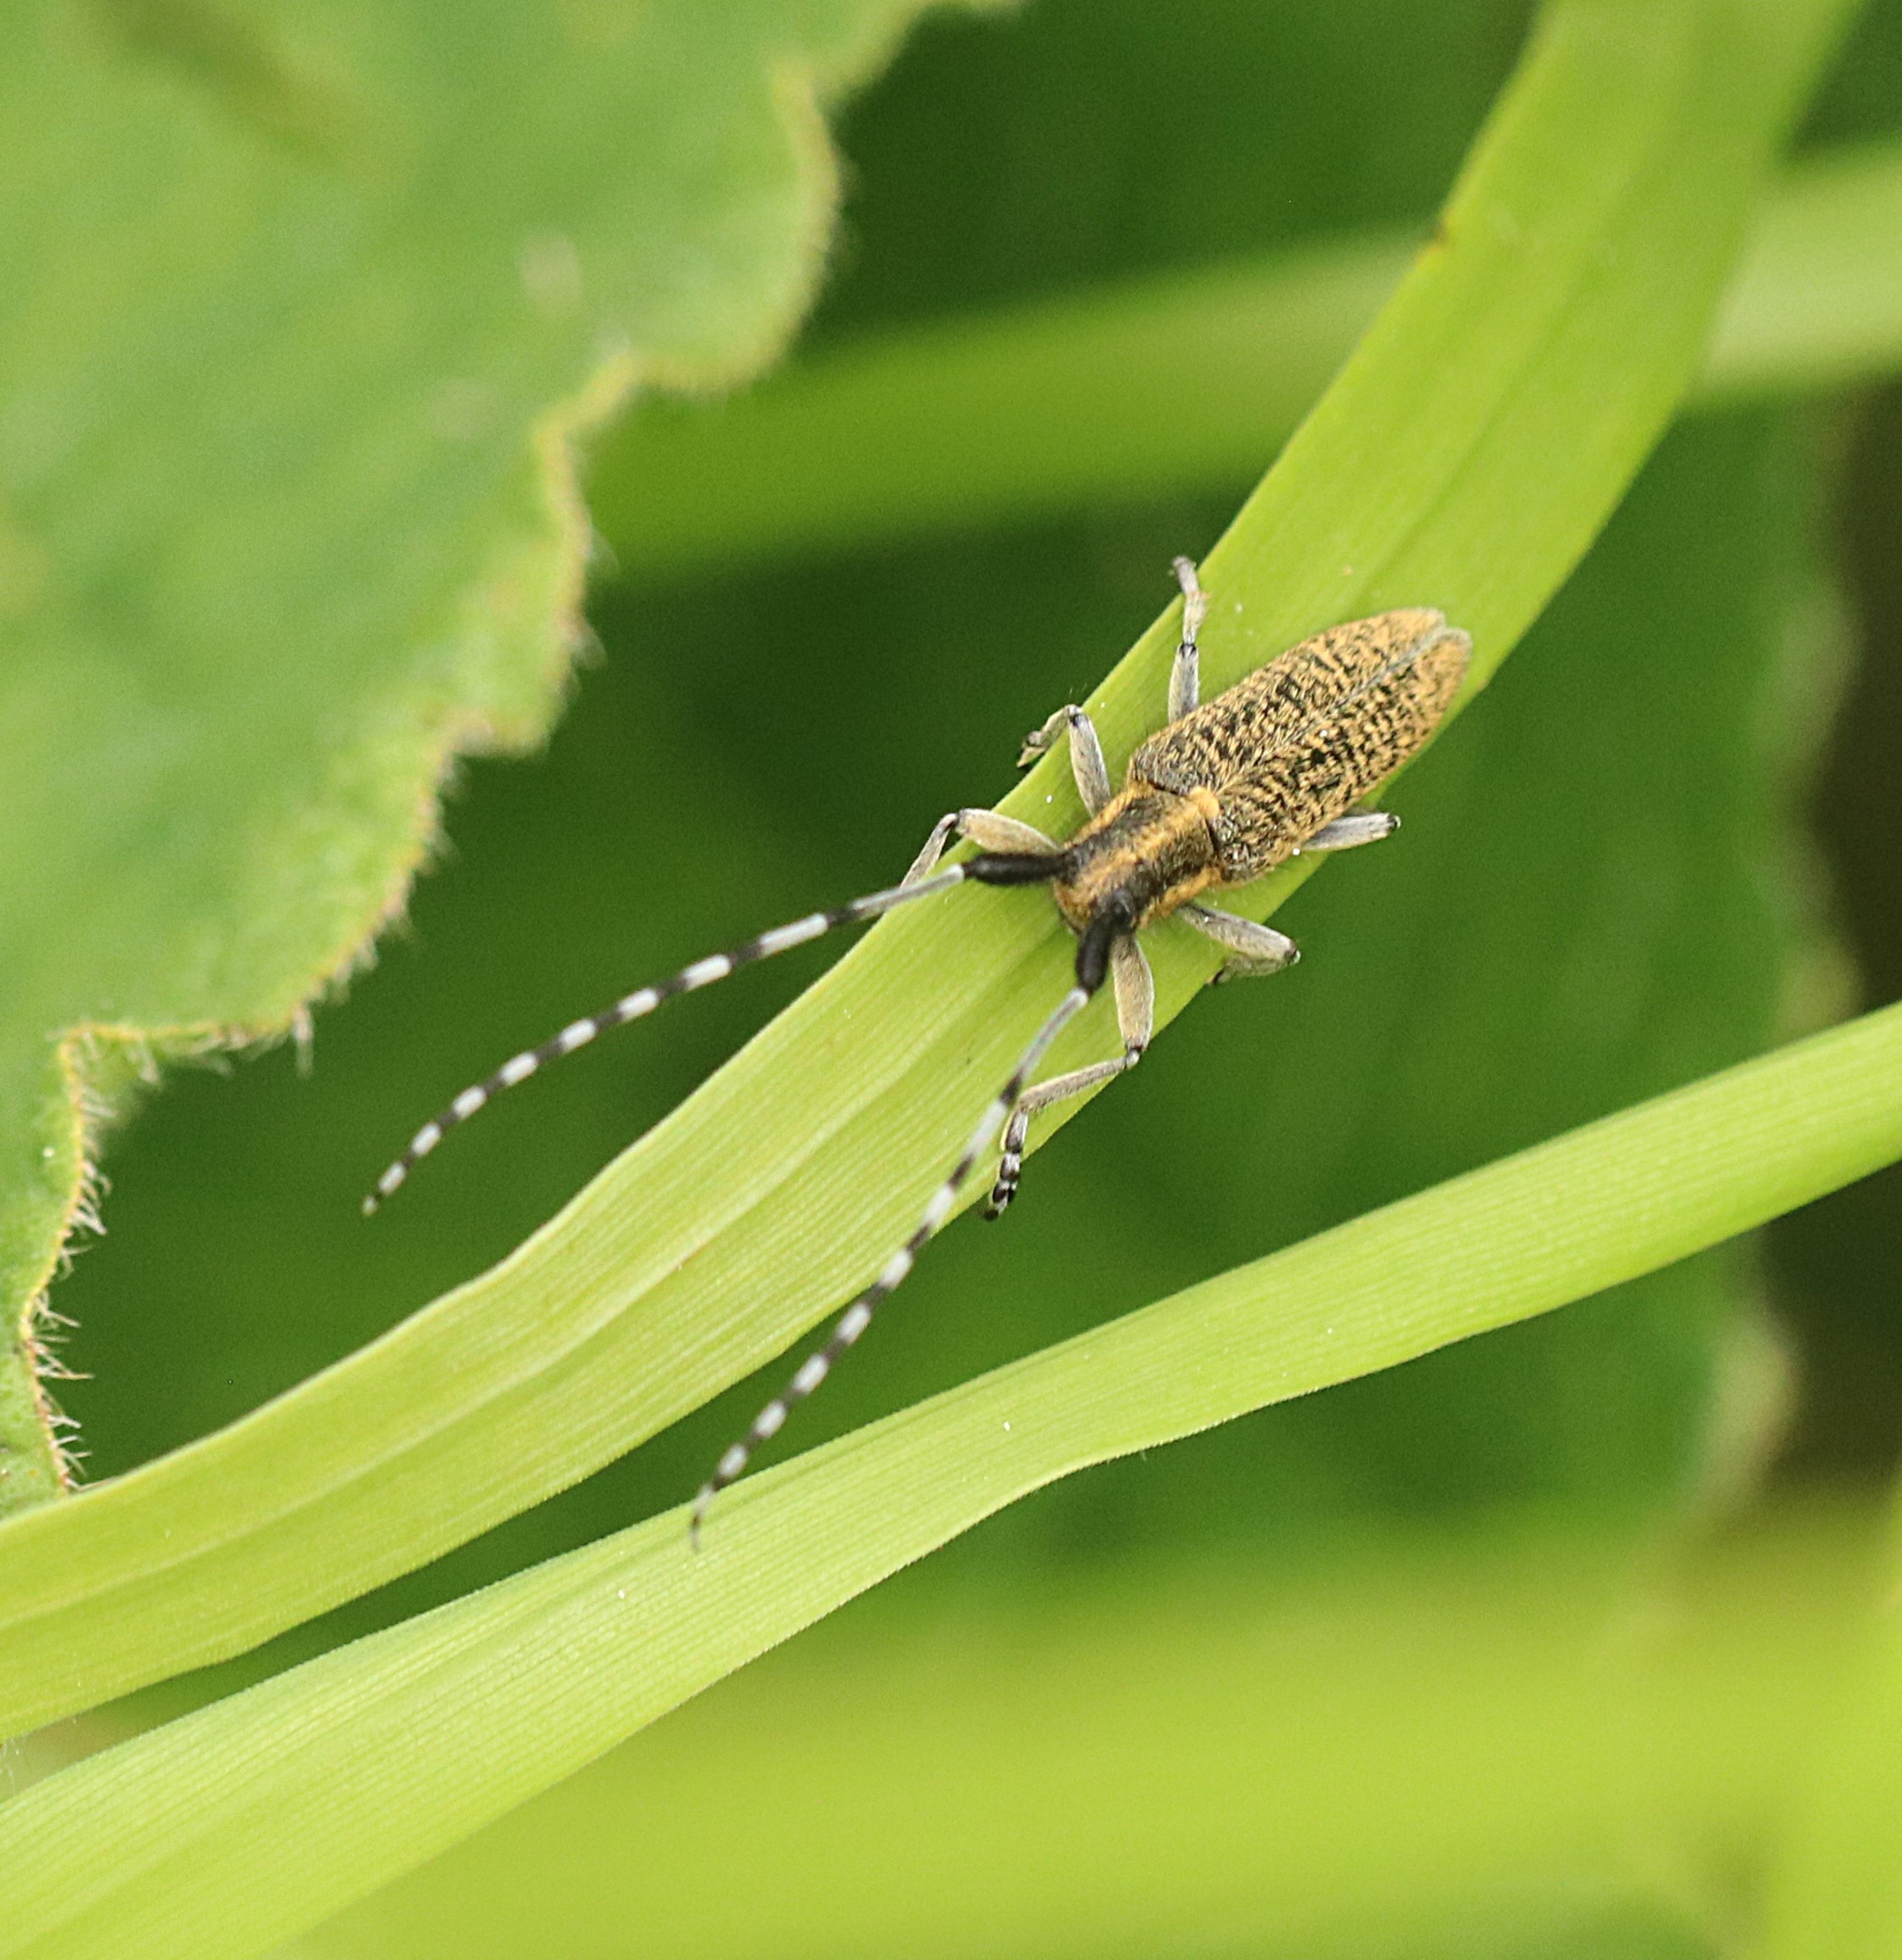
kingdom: Animalia
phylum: Arthropoda
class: Insecta
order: Coleoptera
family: Cerambycidae
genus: Agapanthia
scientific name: Agapanthia villosoviridescens
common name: Tidselbuk
